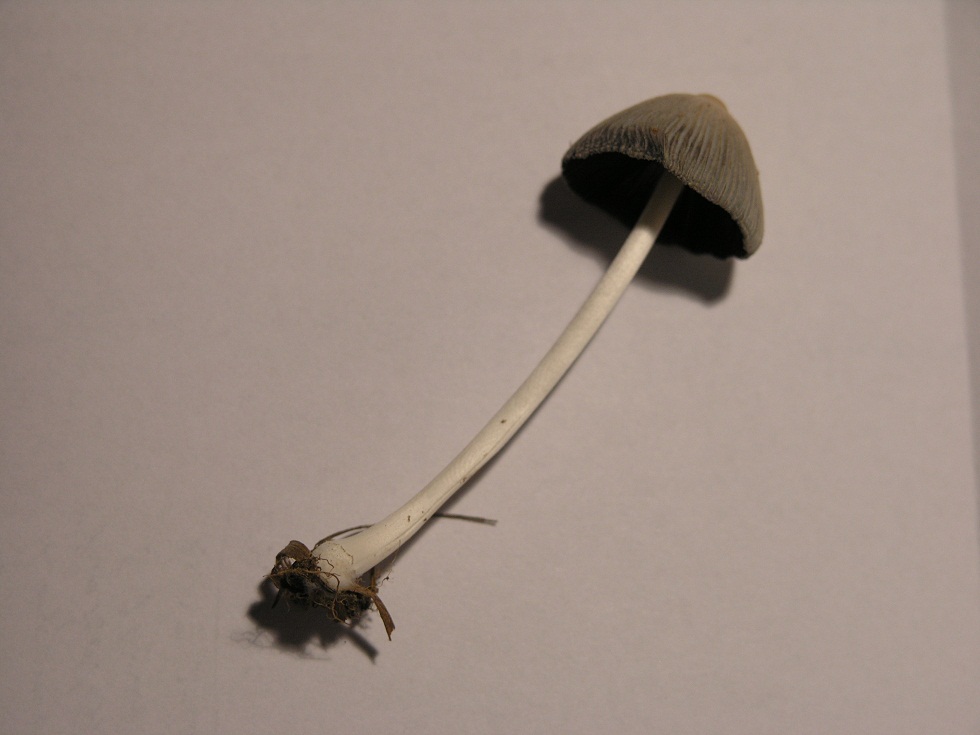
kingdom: Fungi
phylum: Basidiomycota
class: Agaricomycetes
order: Agaricales
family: Psathyrellaceae
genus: Coprinellus
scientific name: Coprinellus xanthothrix
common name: gultrådet blækhat
